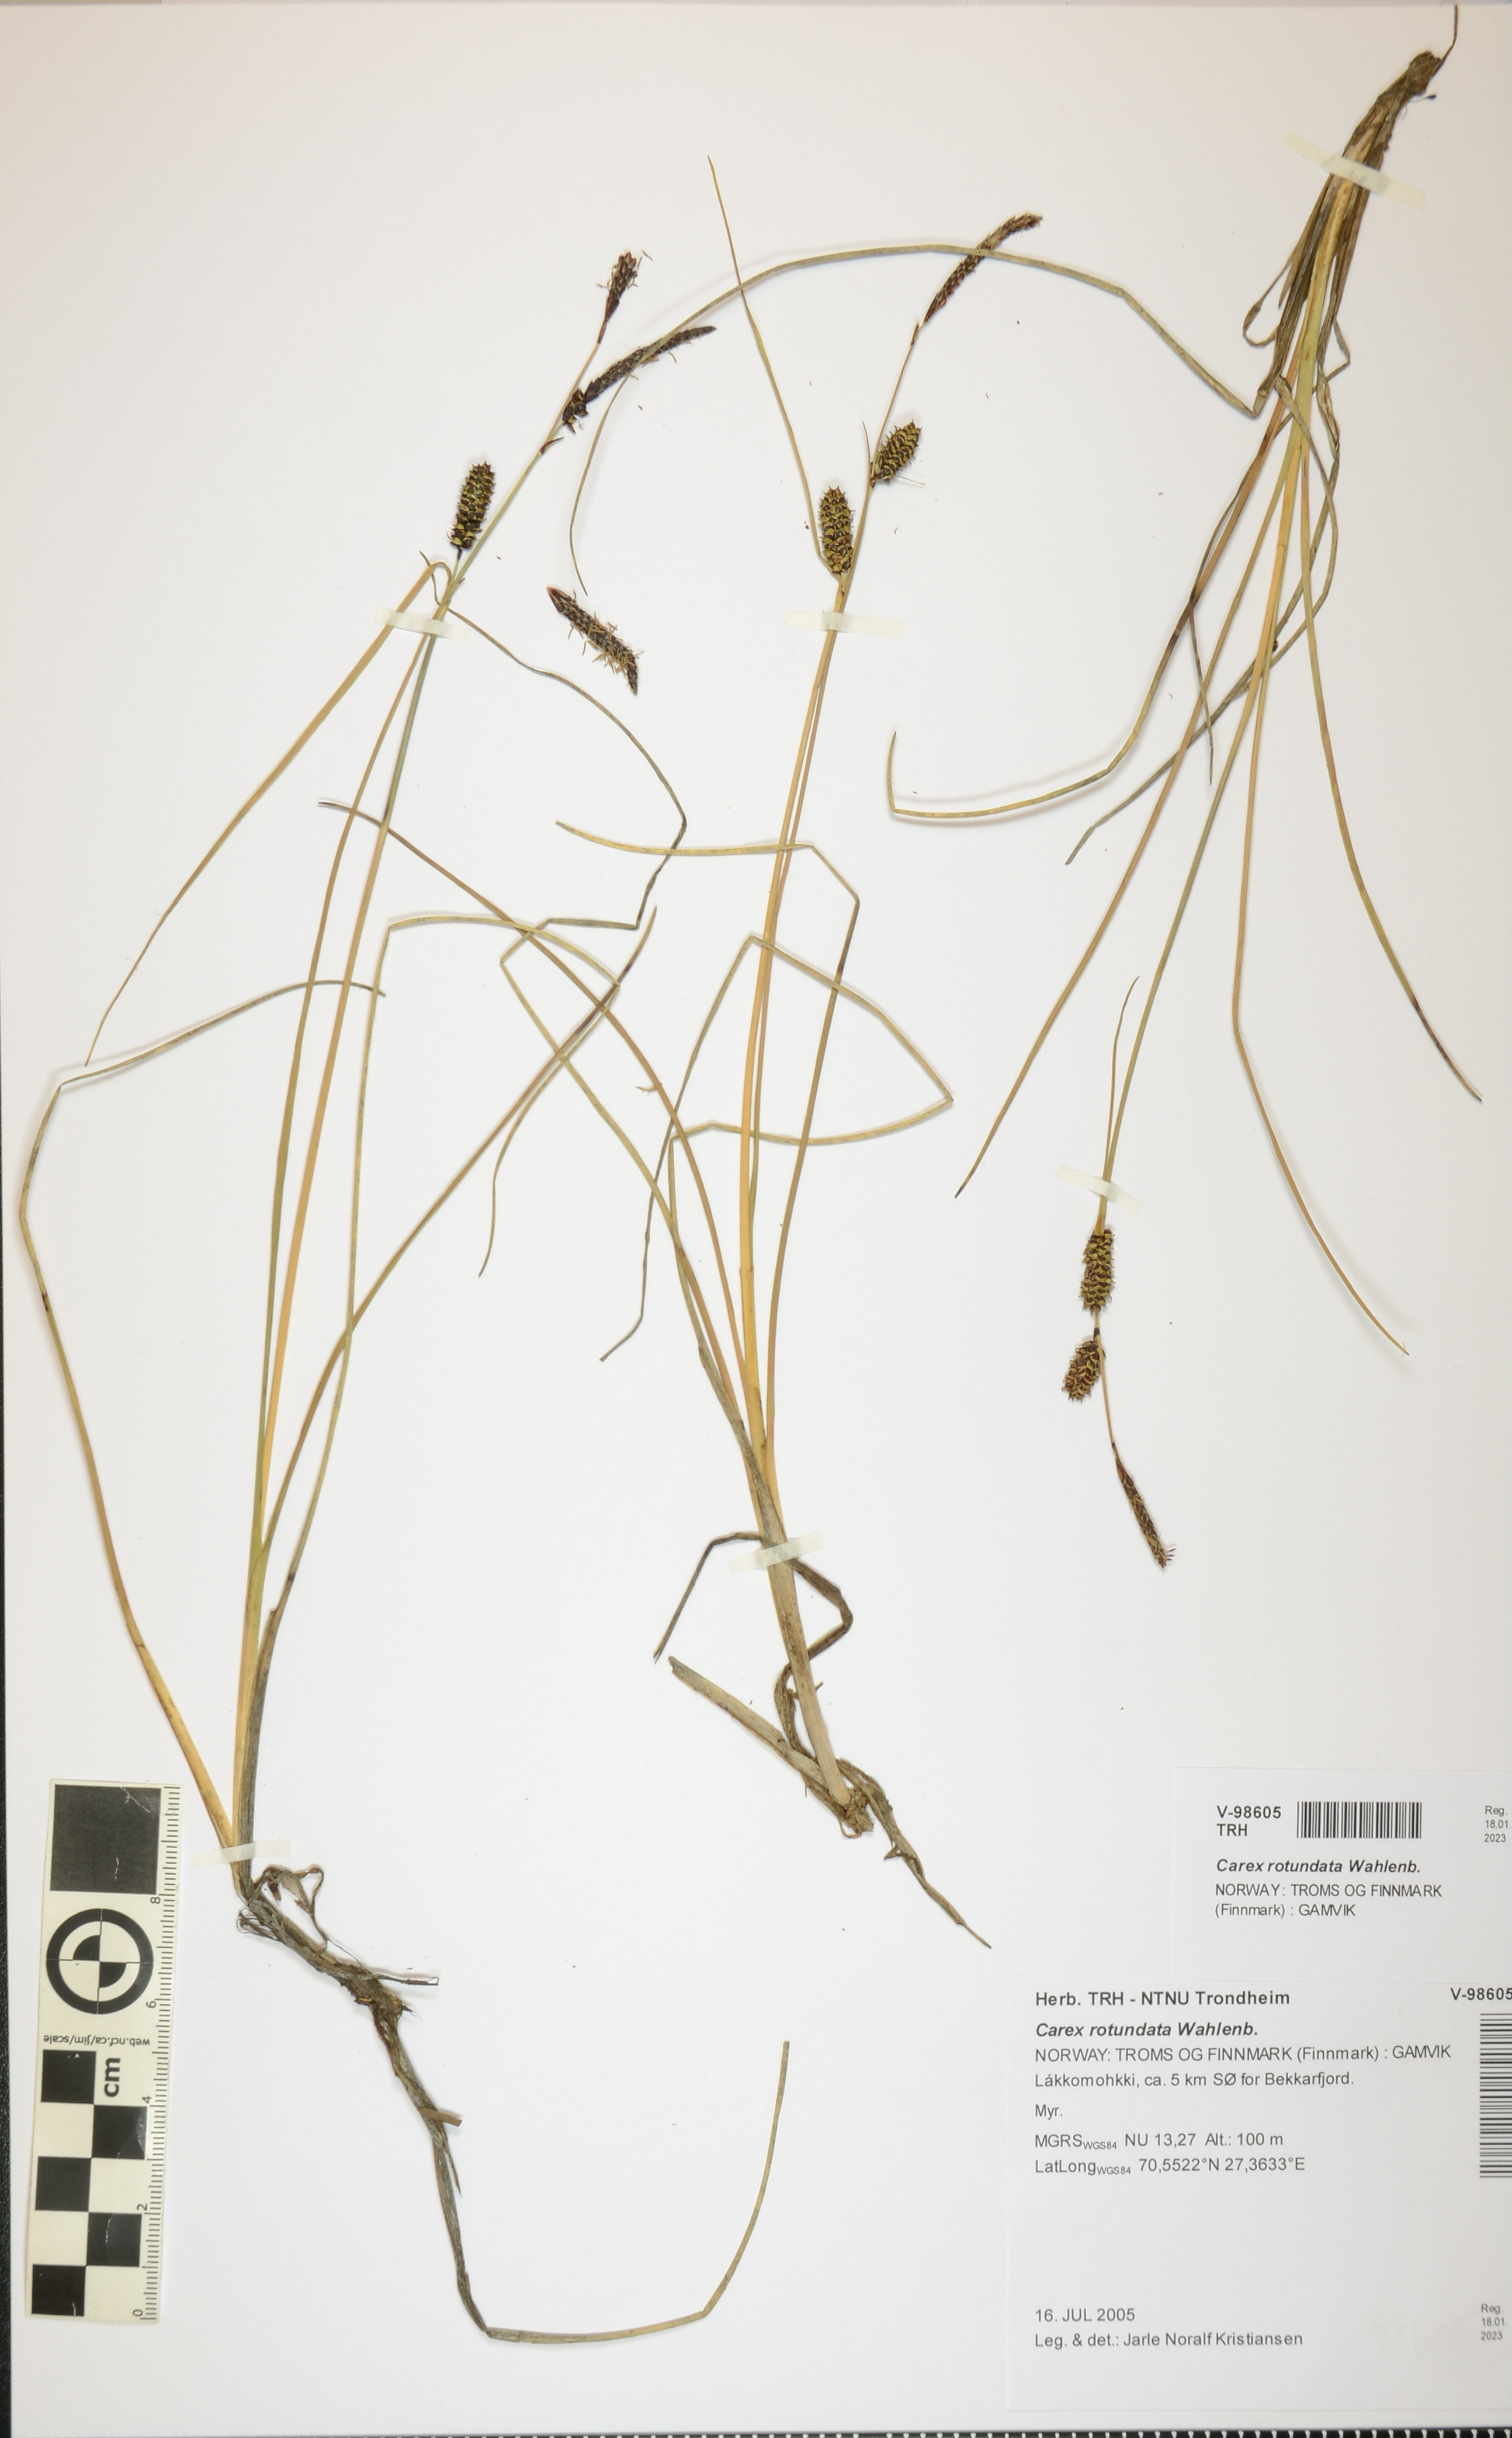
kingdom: Plantae
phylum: Tracheophyta
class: Liliopsida
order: Poales
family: Cyperaceae
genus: Carex
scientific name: Carex rotundata
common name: Round-fruited sedge
